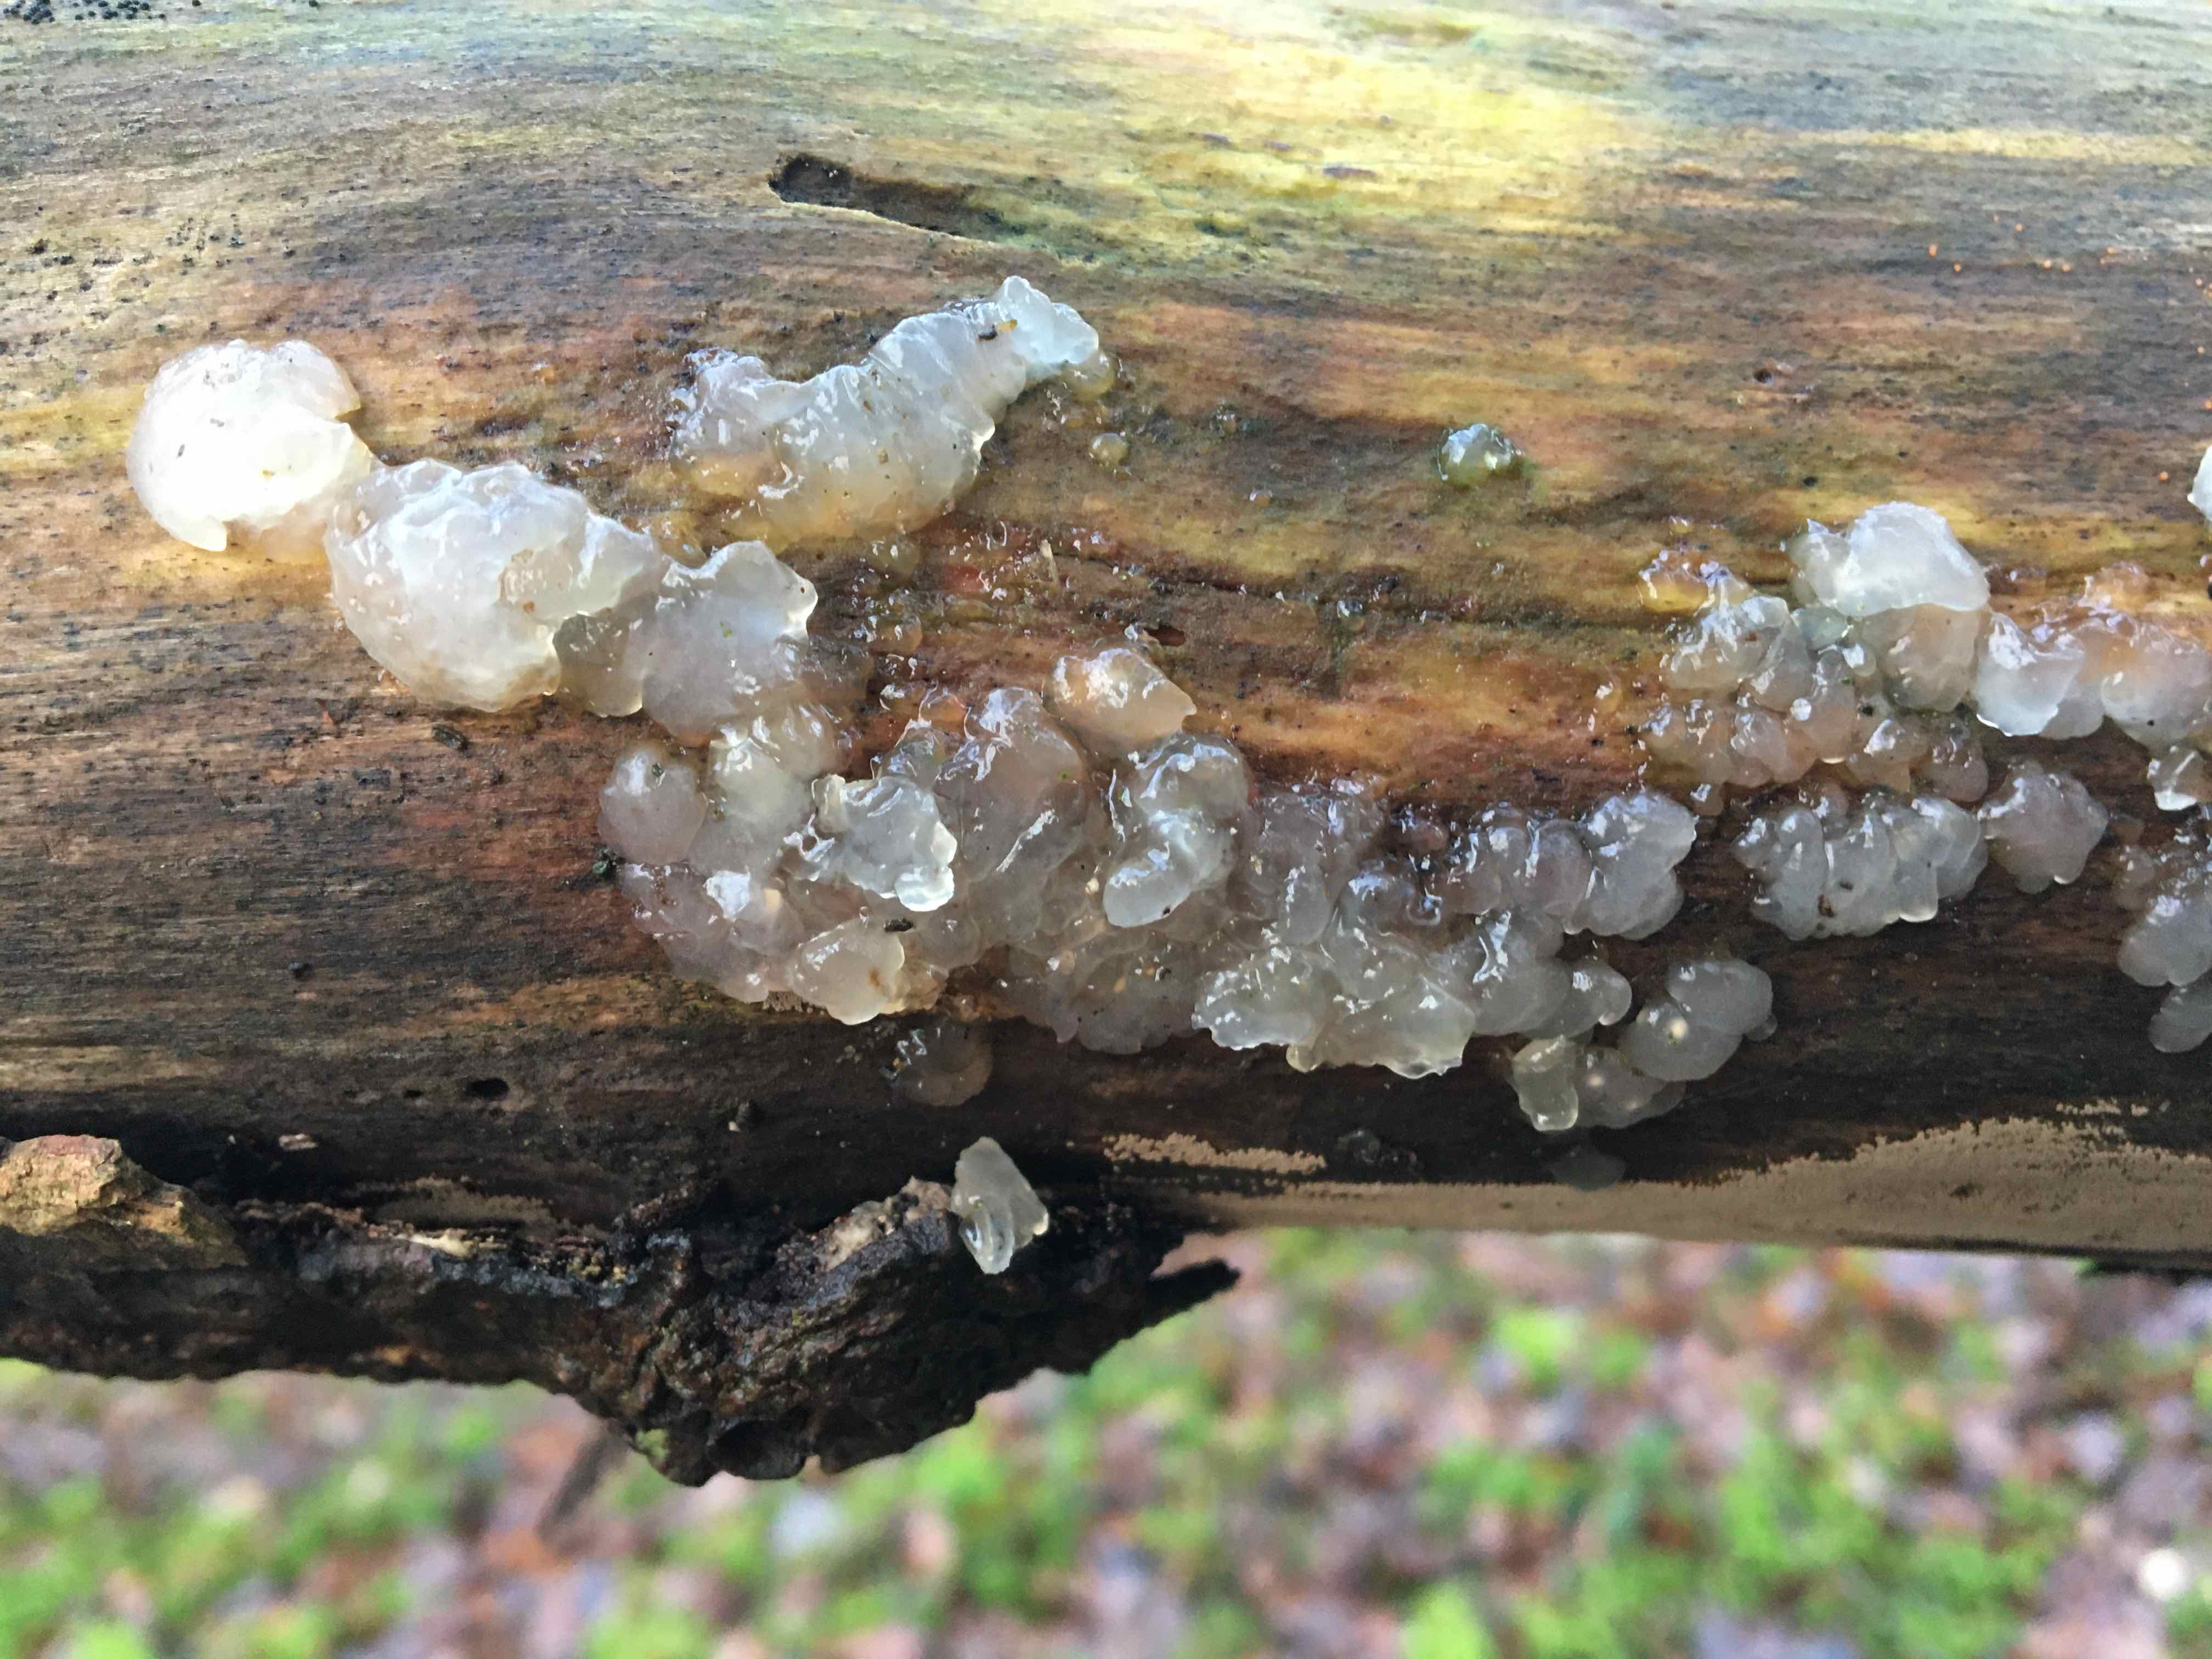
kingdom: Fungi
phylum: Basidiomycota
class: Agaricomycetes
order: Auriculariales
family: Hyaloriaceae
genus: Myxarium
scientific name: Myxarium nucleatum
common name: klar bævretop
